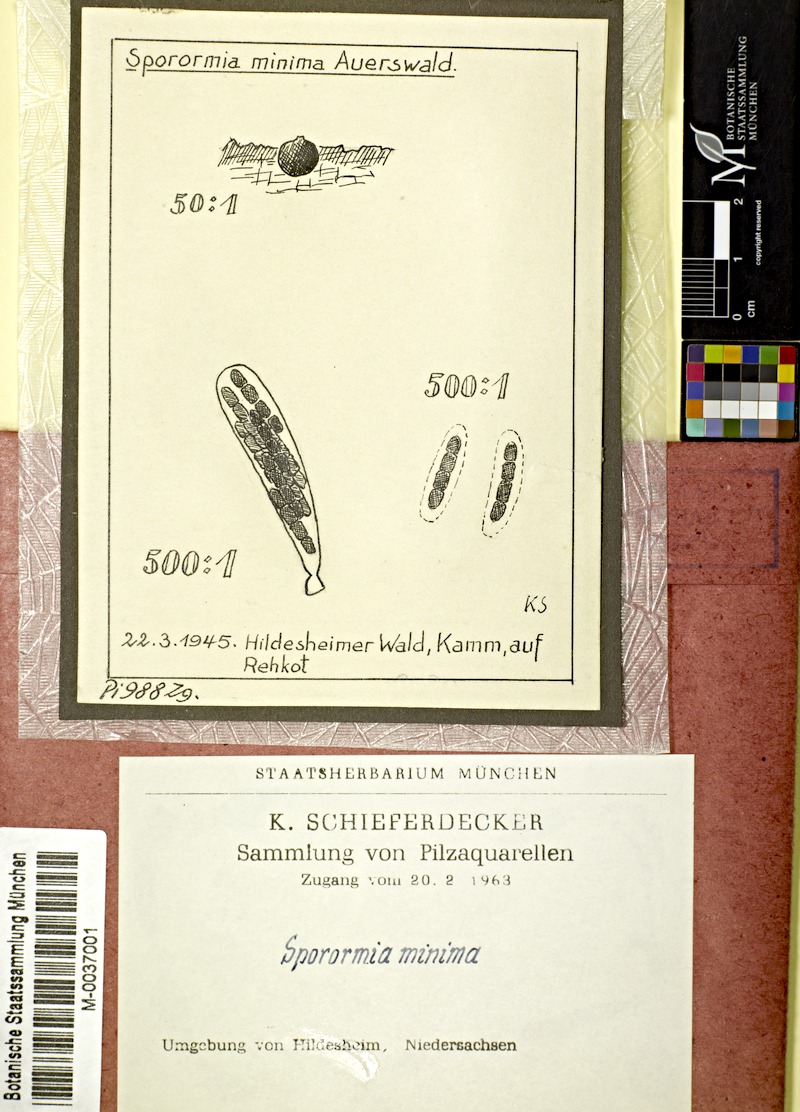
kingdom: Fungi
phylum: Ascomycota
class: Dothideomycetes
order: Pleosporales
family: Sporormiaceae
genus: Sporormiella
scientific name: Sporormiella minima
